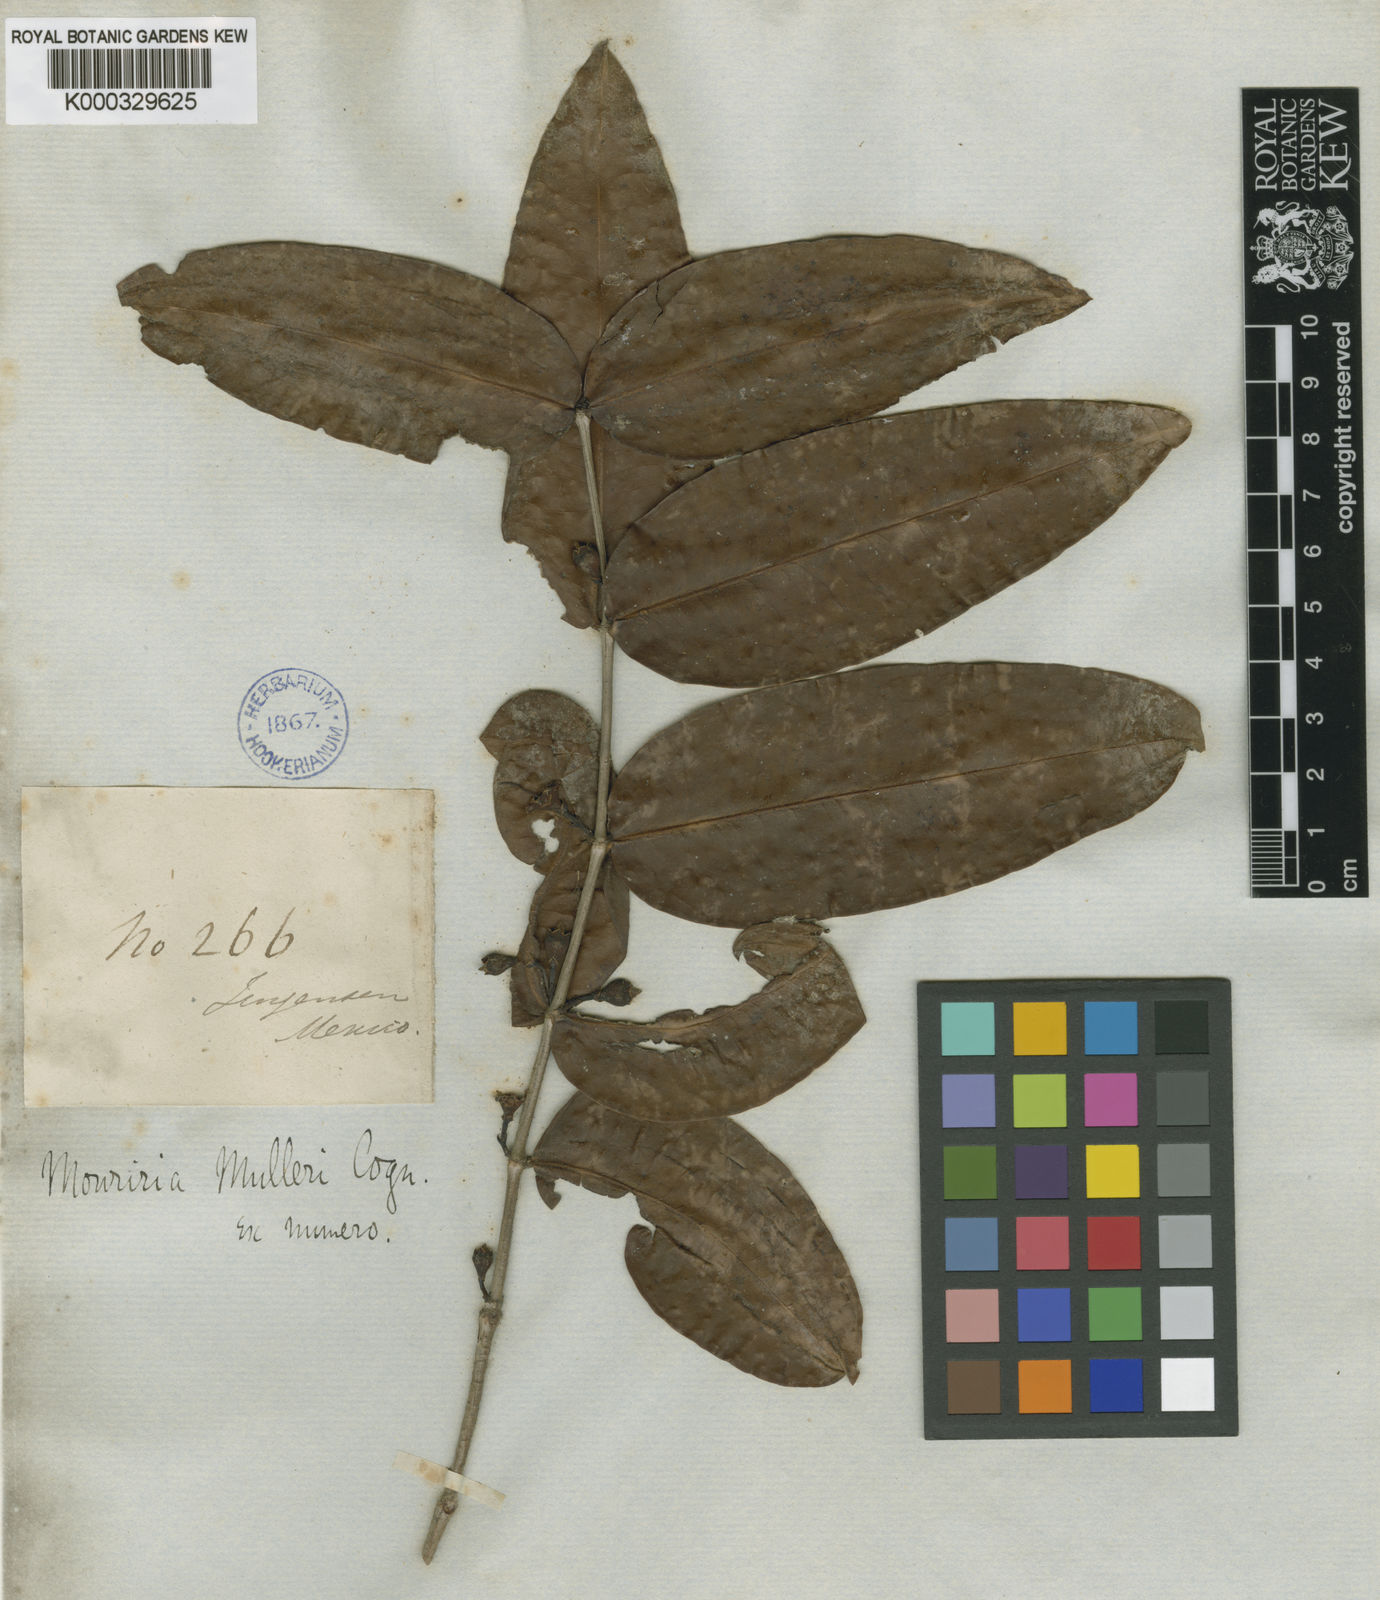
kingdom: Plantae
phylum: Tracheophyta
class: Magnoliopsida
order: Myrtales
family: Melastomataceae
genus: Mouriri
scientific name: Mouriri muelleri
